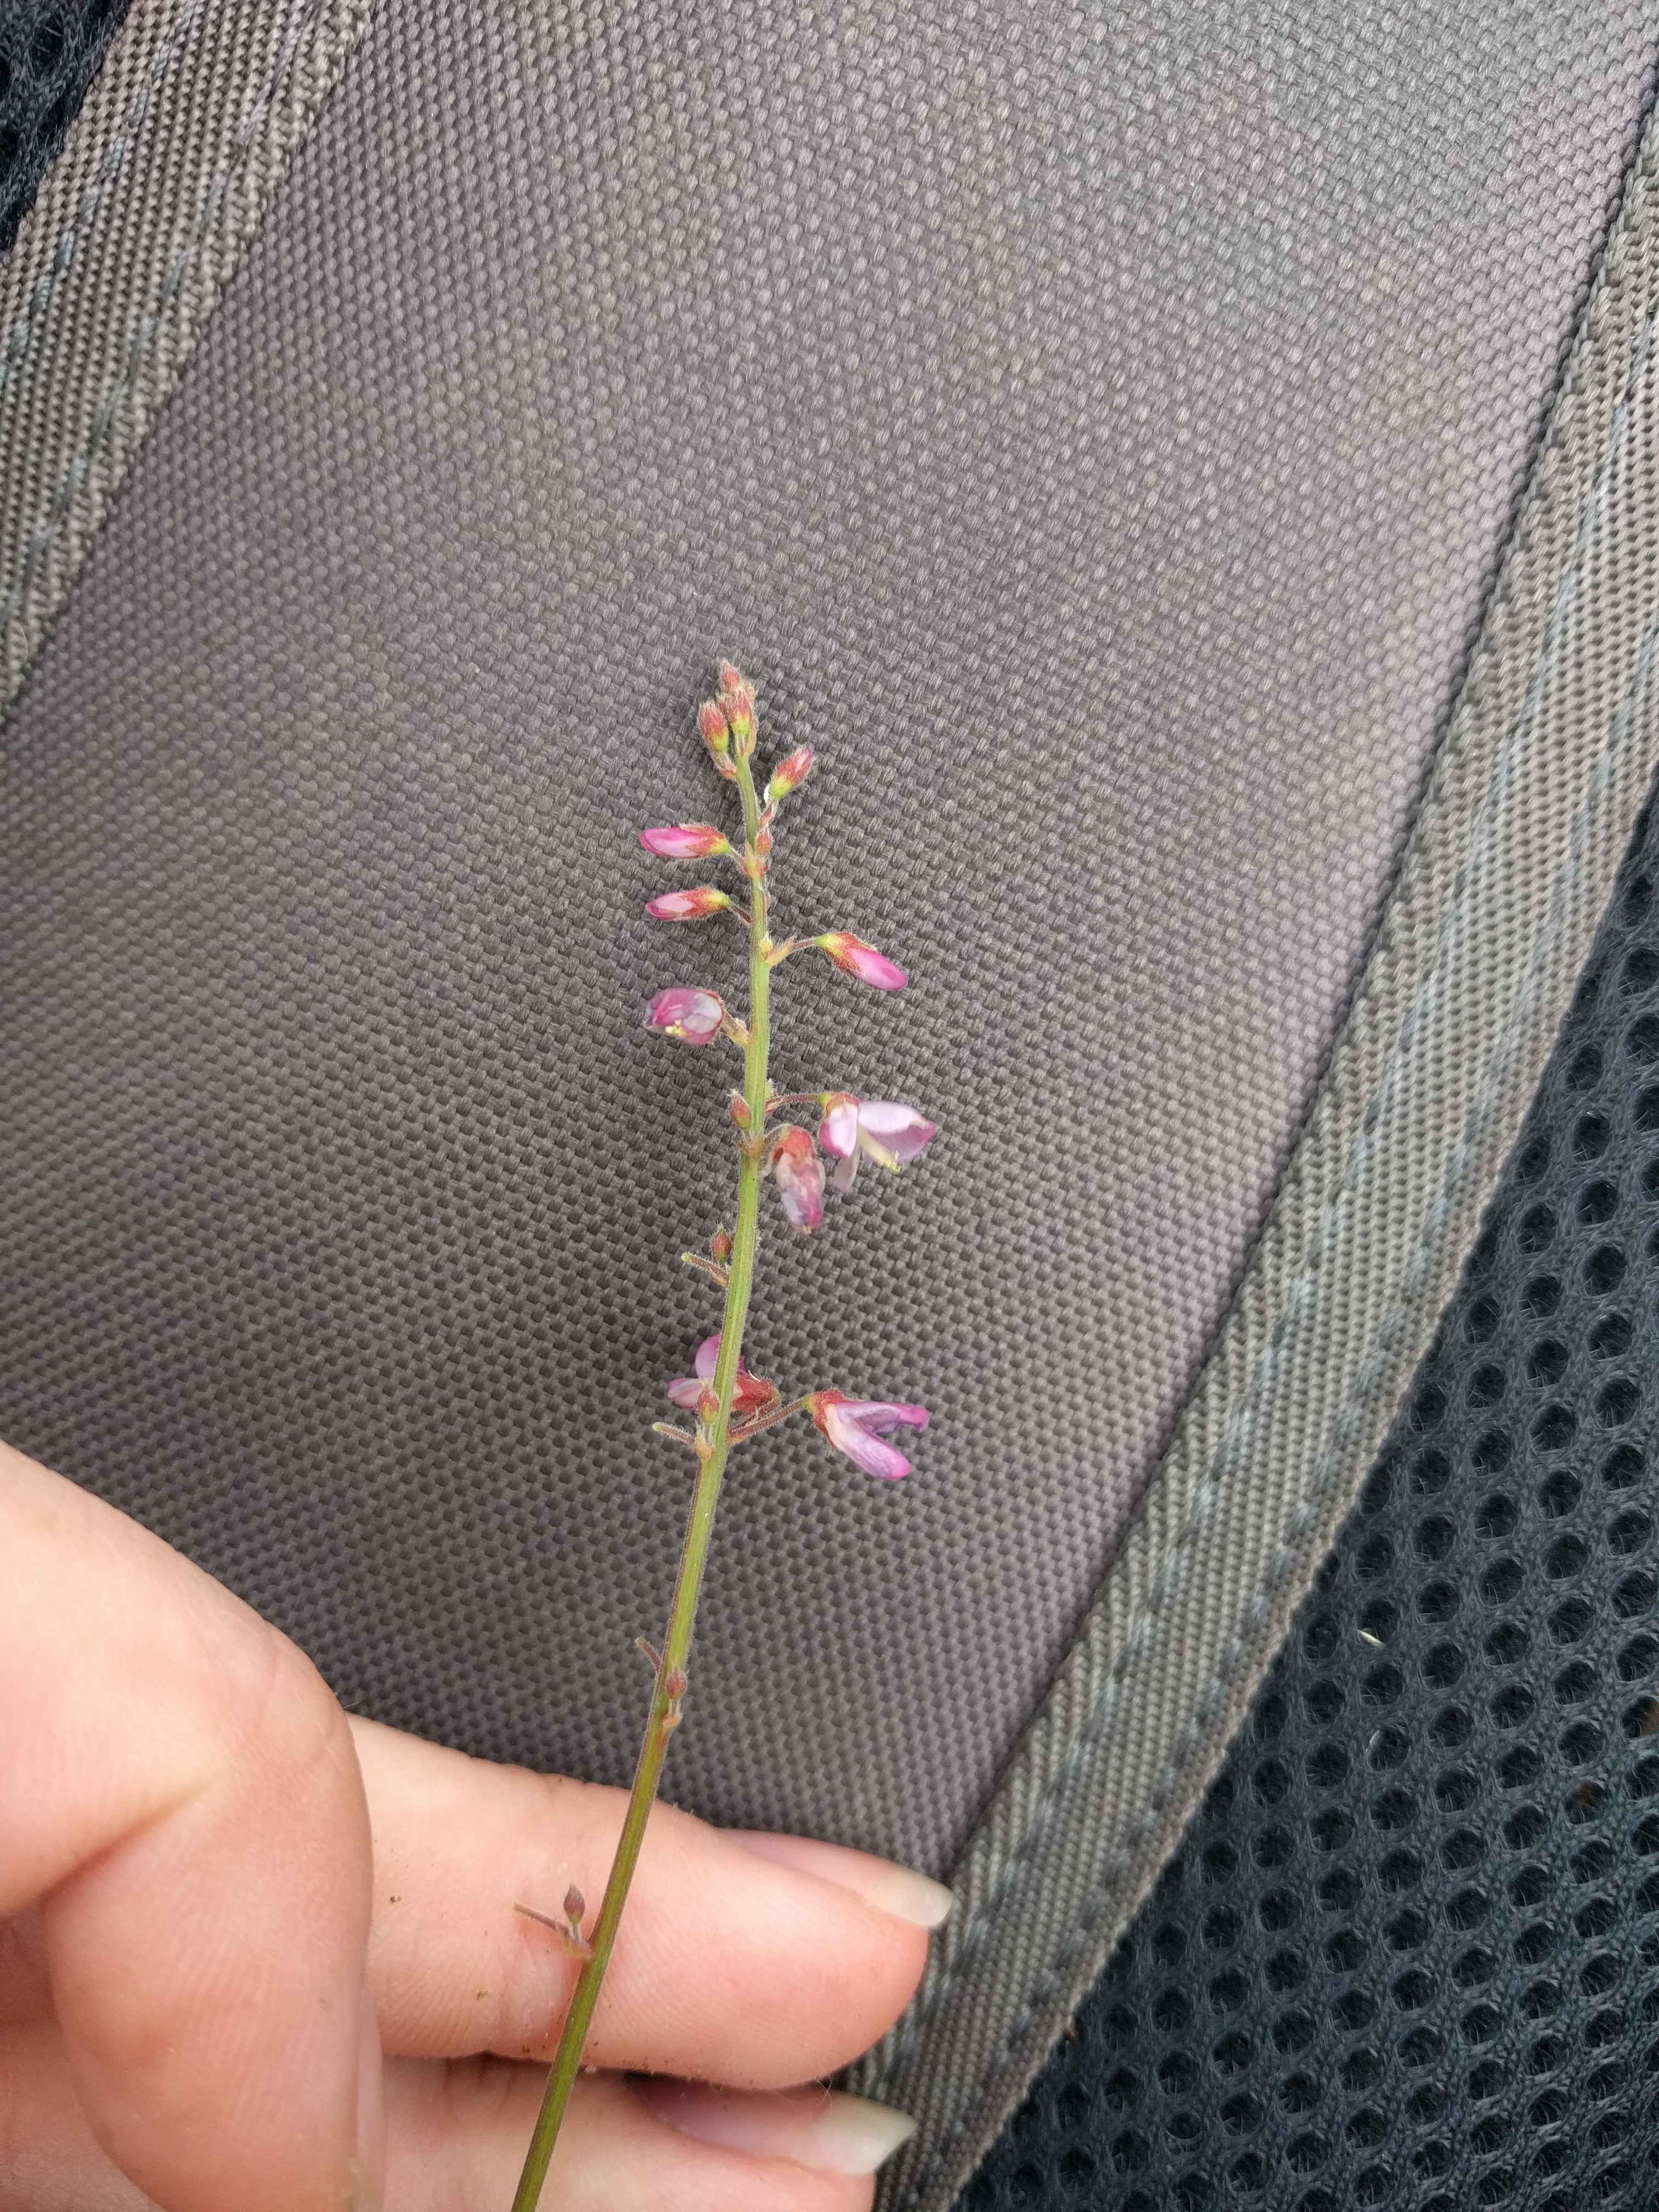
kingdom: Plantae
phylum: Tracheophyta
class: Magnoliopsida
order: Fabales
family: Fabaceae
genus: Desmodium
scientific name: Desmodium scorpiurus
